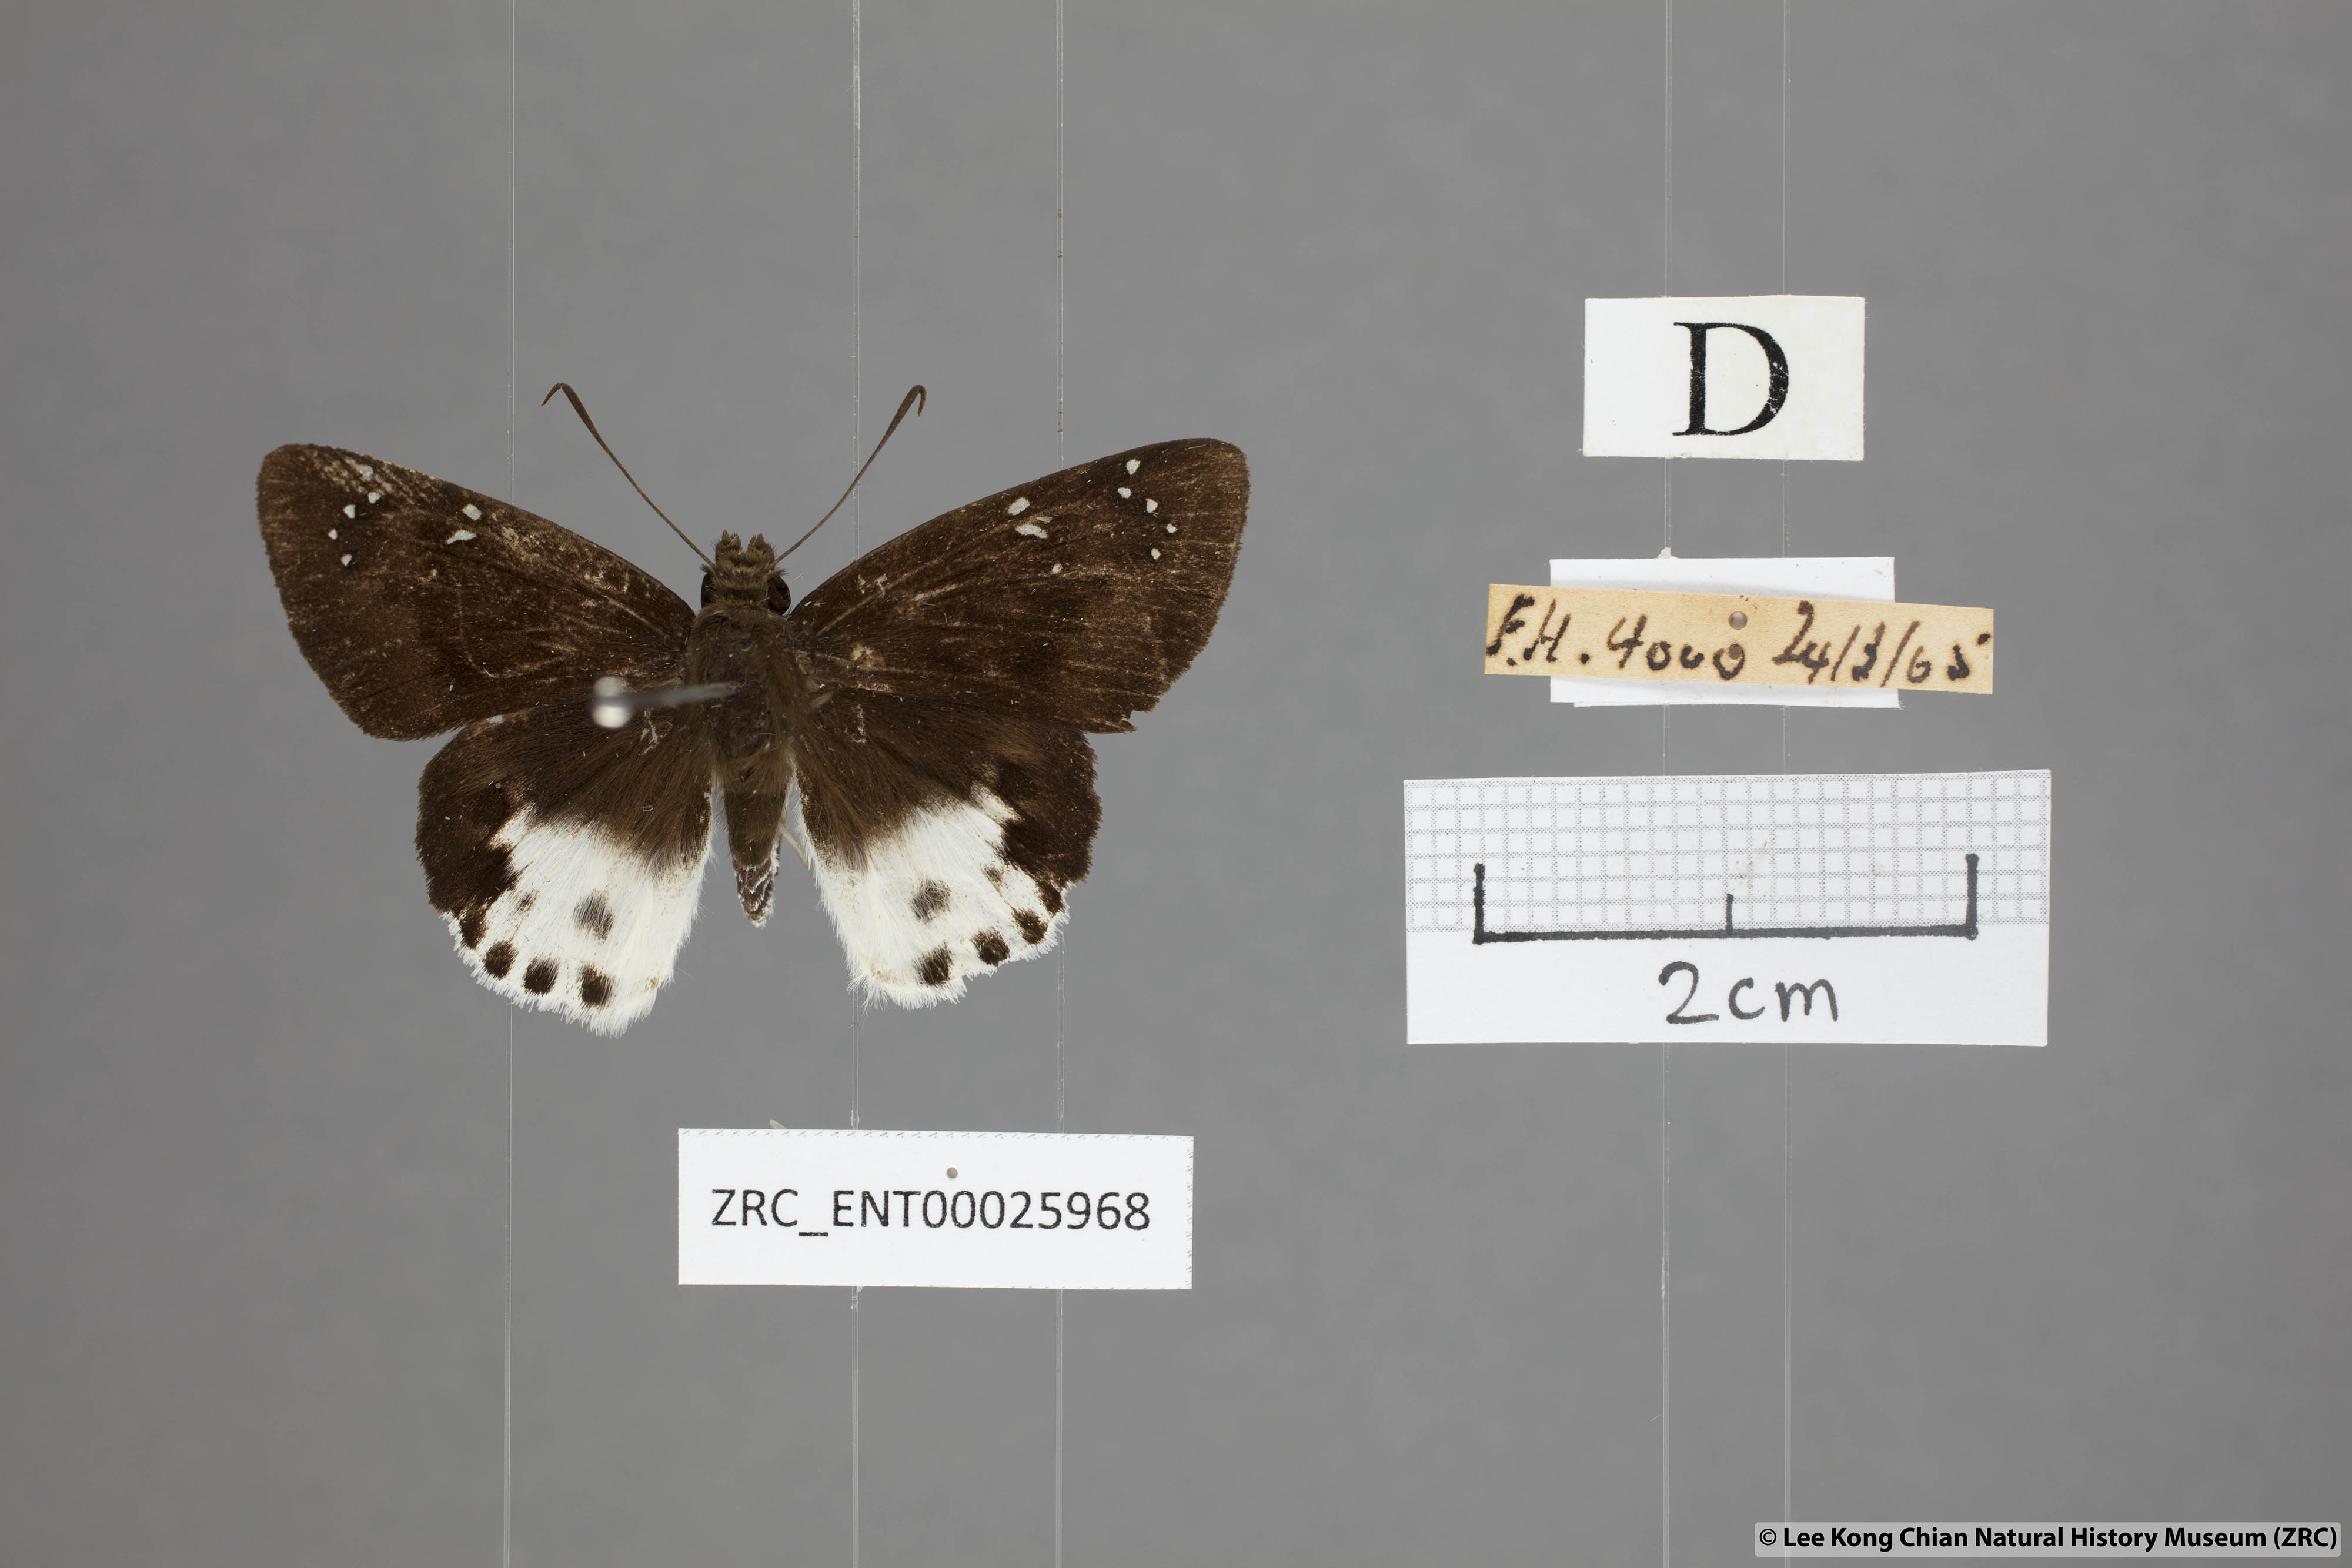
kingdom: Animalia
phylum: Arthropoda
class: Insecta
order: Lepidoptera
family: Hesperiidae
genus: Tagiades
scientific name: Tagiades cohaerens
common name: White-striped snow flat
